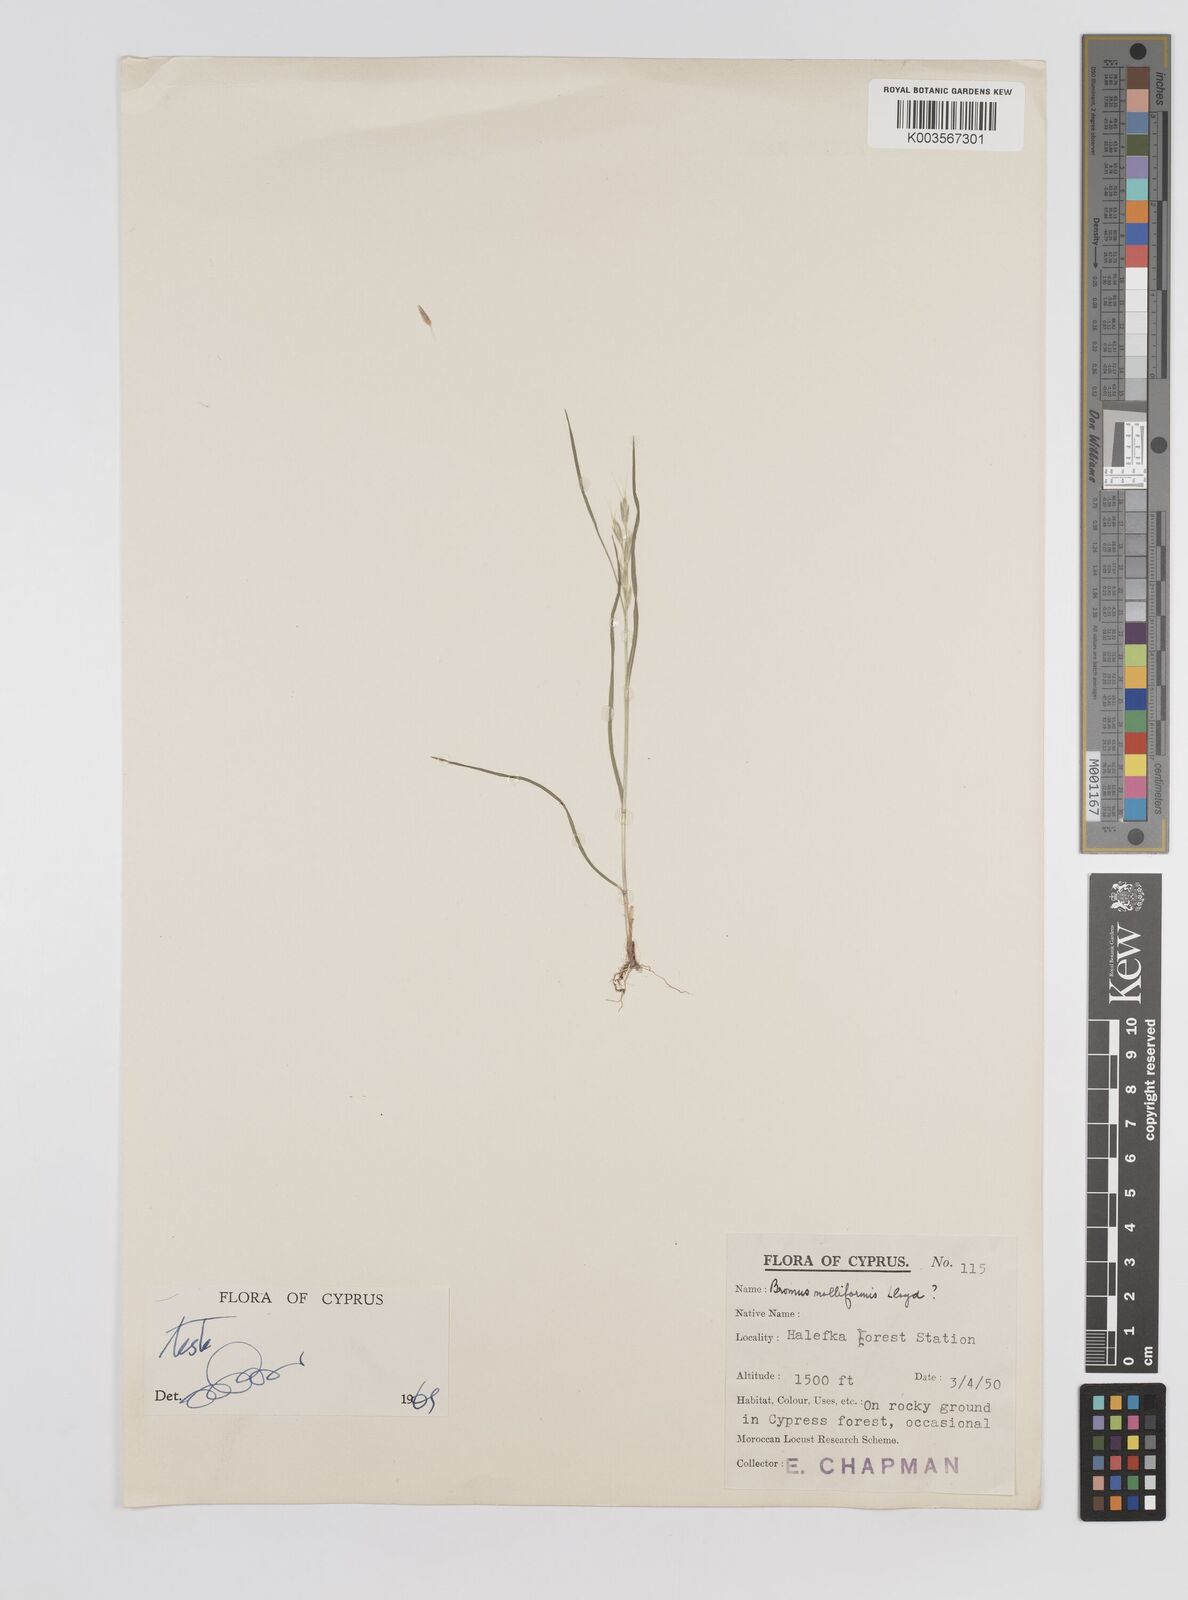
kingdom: Plantae
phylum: Tracheophyta
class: Liliopsida
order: Poales
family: Poaceae
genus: Bromus
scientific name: Bromus hordeaceus
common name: Soft brome
